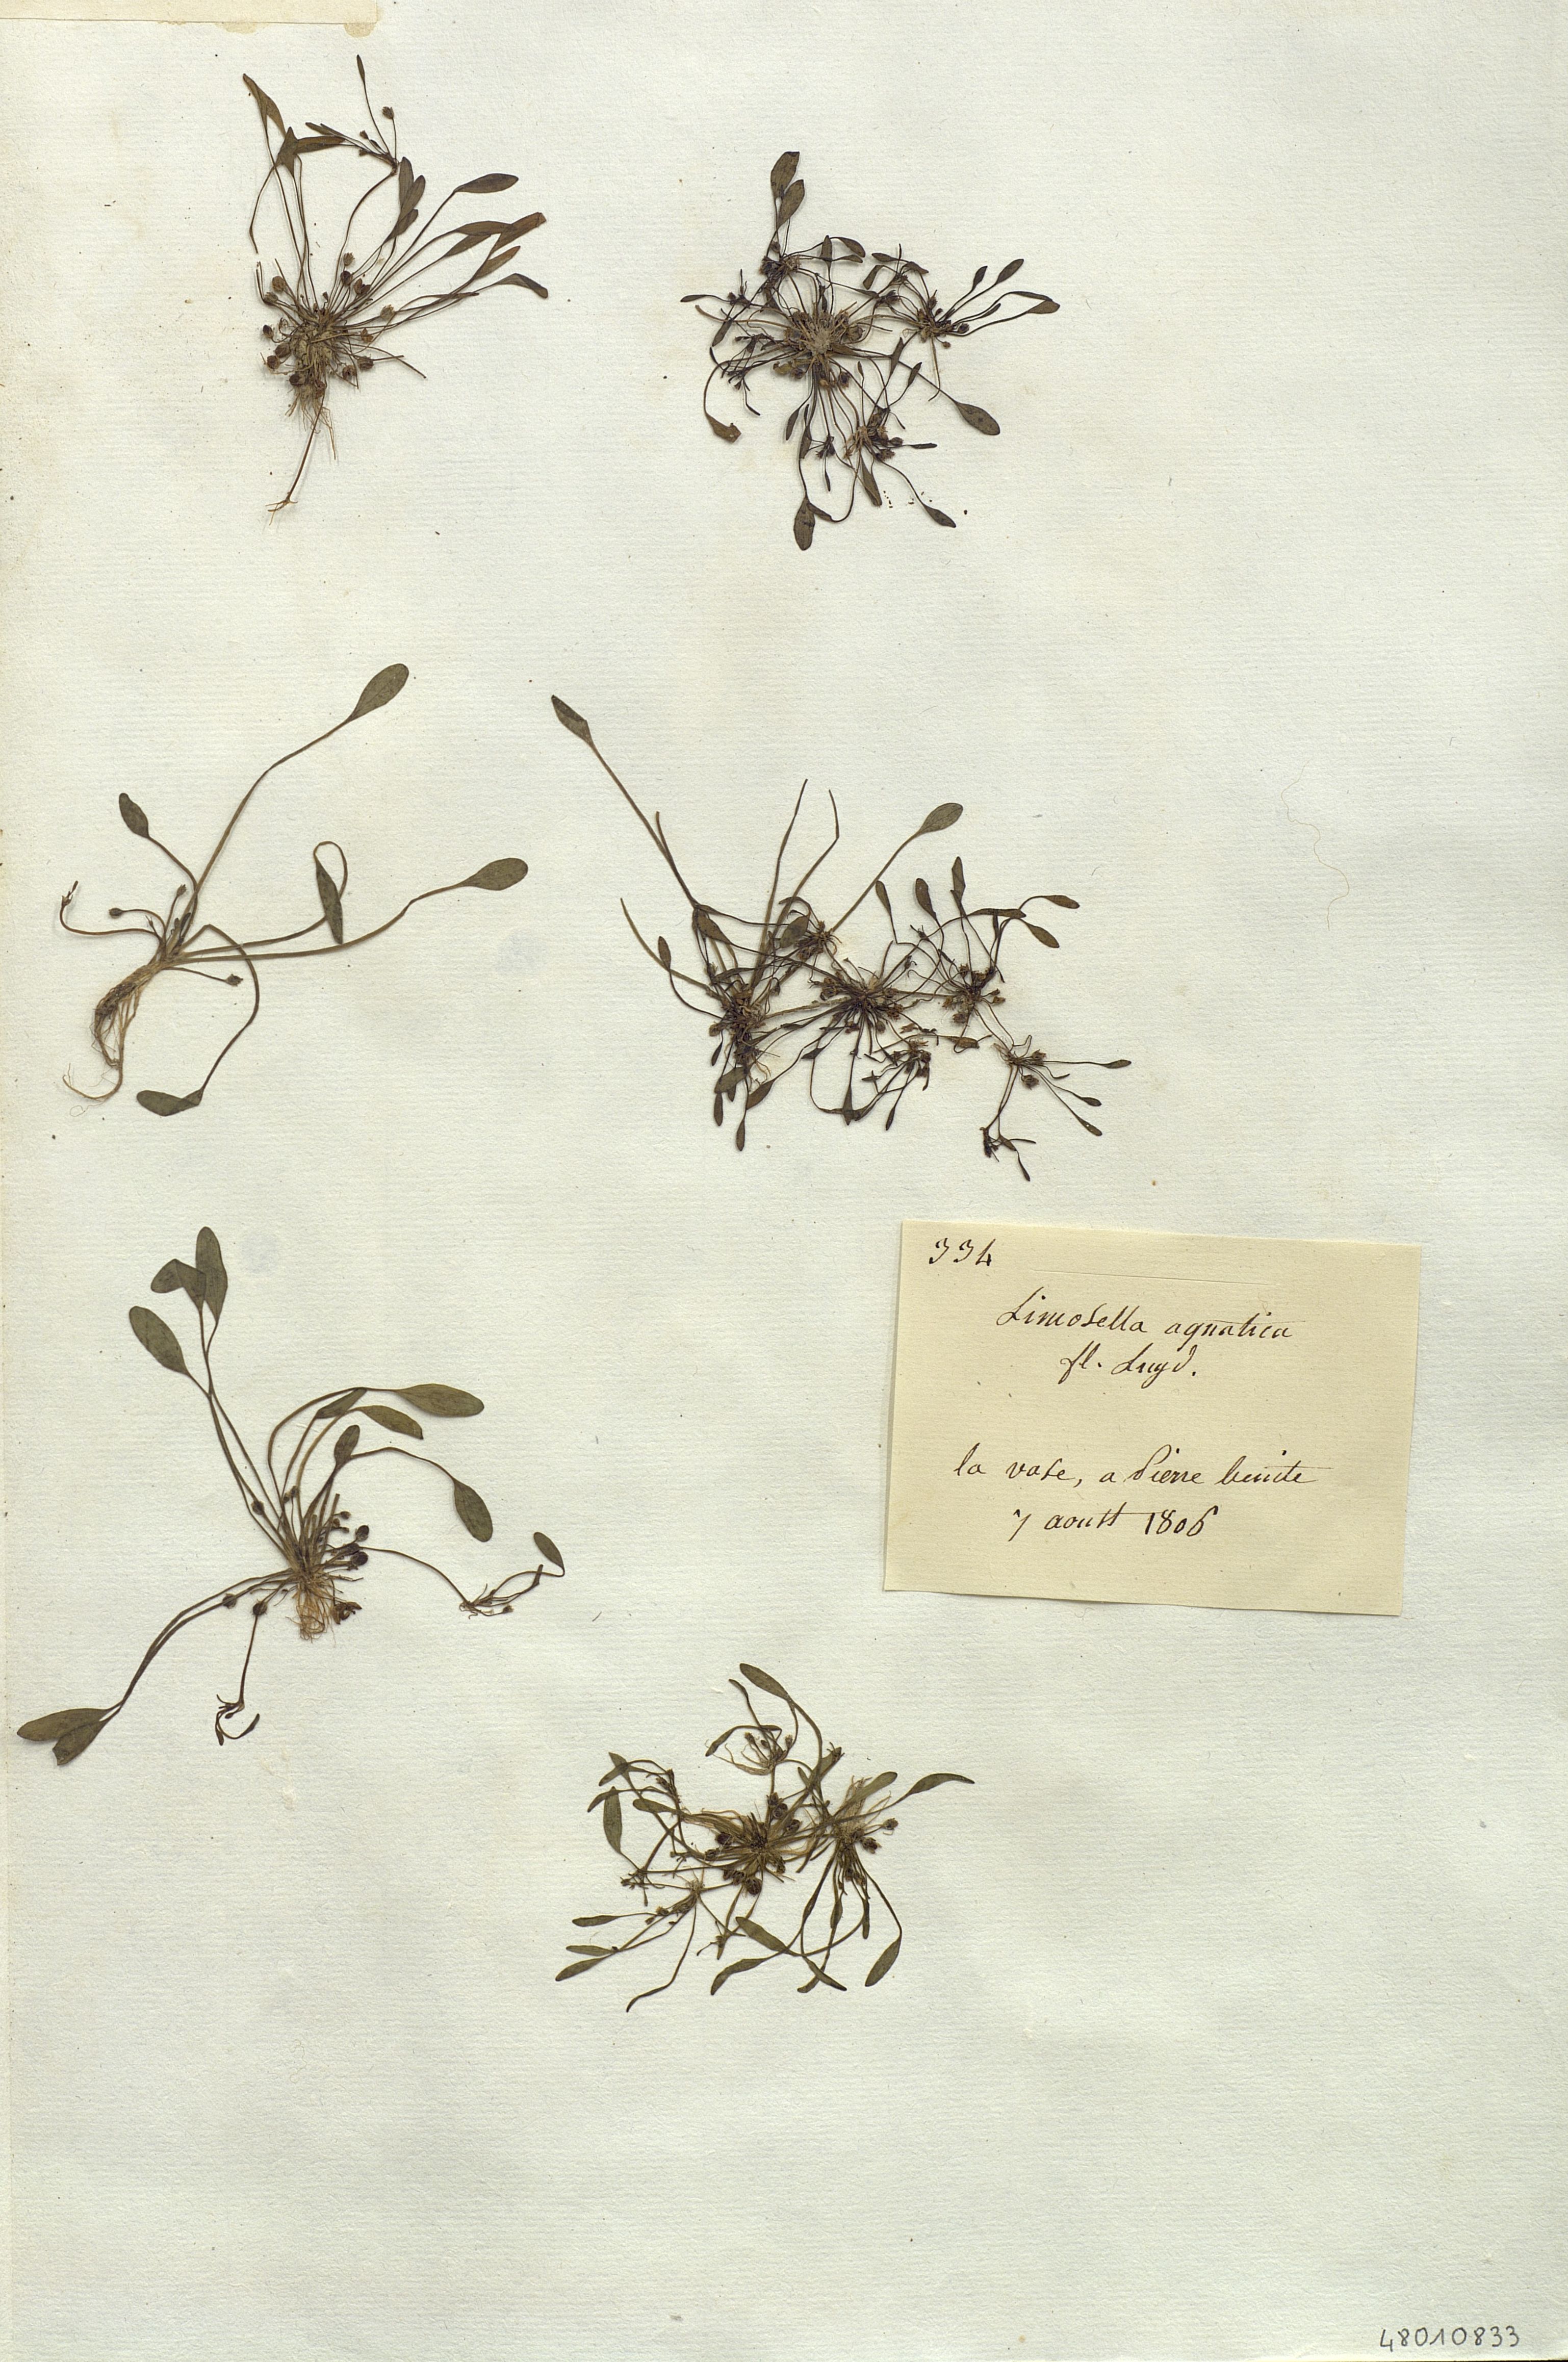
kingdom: Plantae
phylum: Tracheophyta
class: Magnoliopsida
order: Lamiales
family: Scrophulariaceae
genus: Limosella
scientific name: Limosella aquatica
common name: Mudwort
